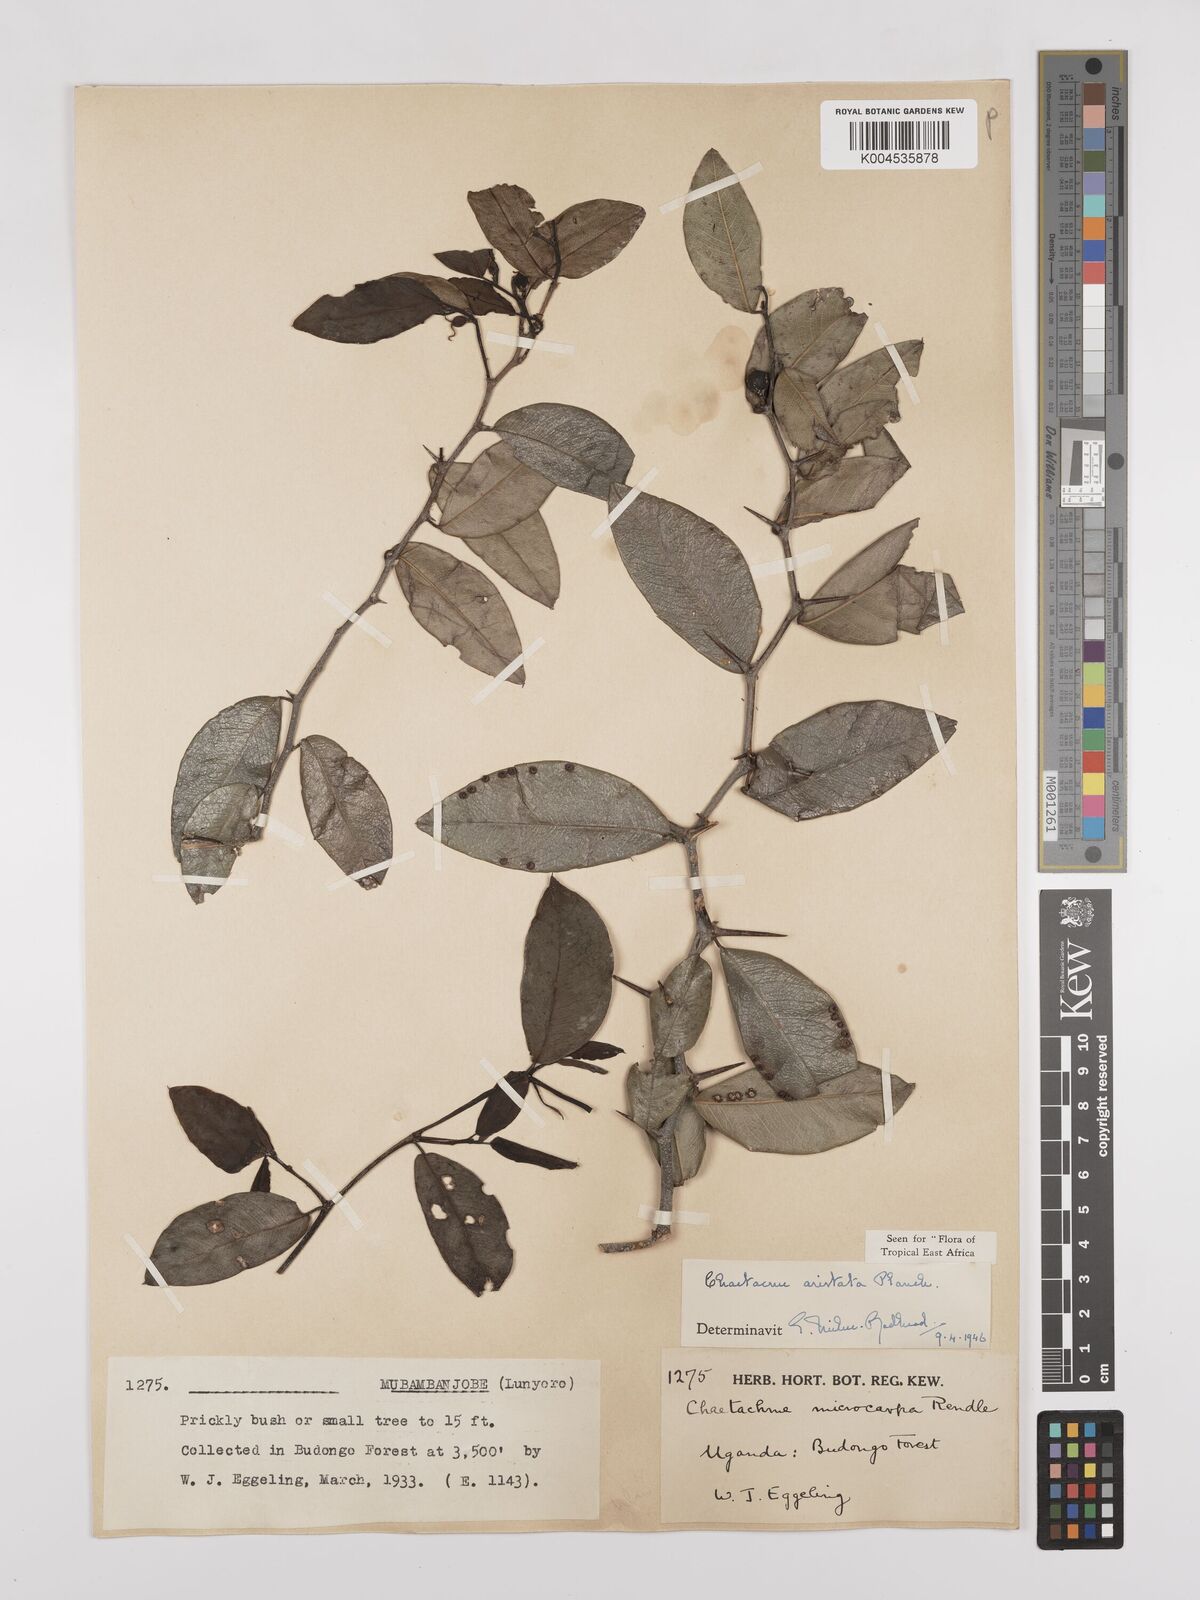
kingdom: Plantae
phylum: Tracheophyta
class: Magnoliopsida
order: Rosales
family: Cannabaceae
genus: Chaetachme
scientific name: Chaetachme aristata
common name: Thorny elm
